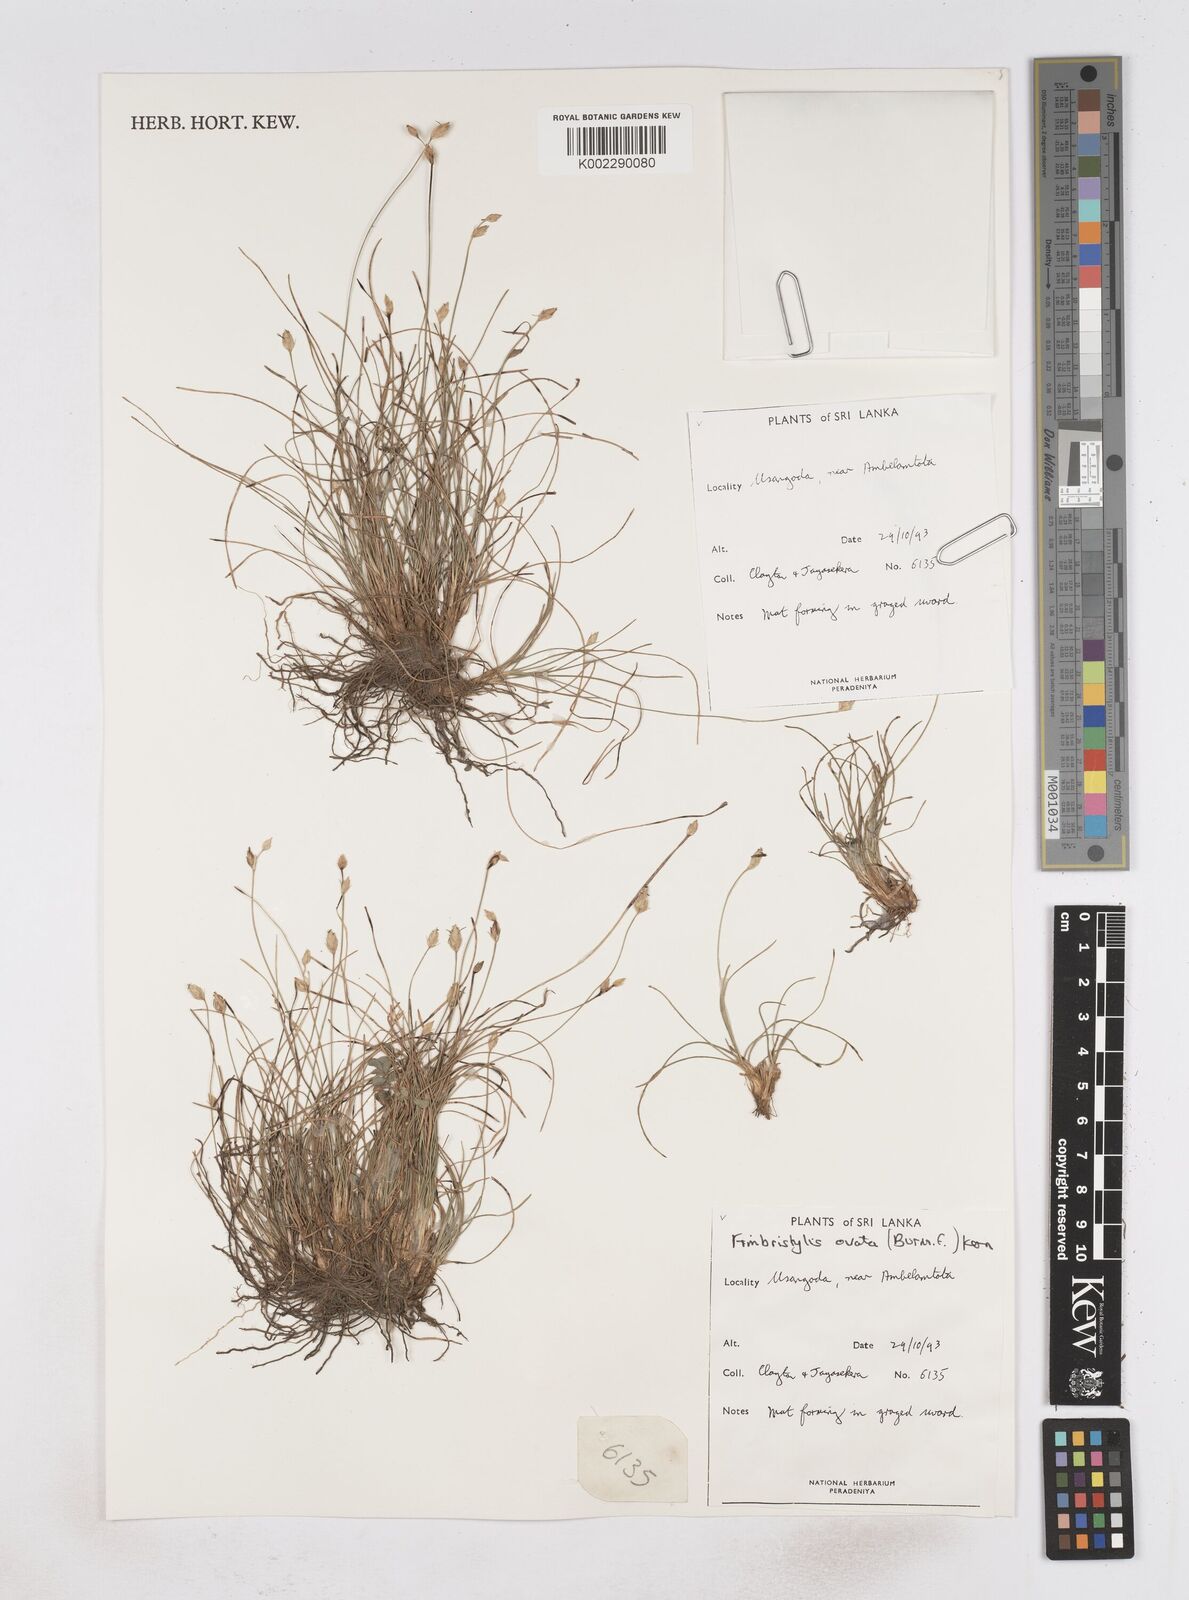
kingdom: Plantae
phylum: Tracheophyta
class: Liliopsida
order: Poales
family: Cyperaceae
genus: Abildgaardia
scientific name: Abildgaardia ovata
